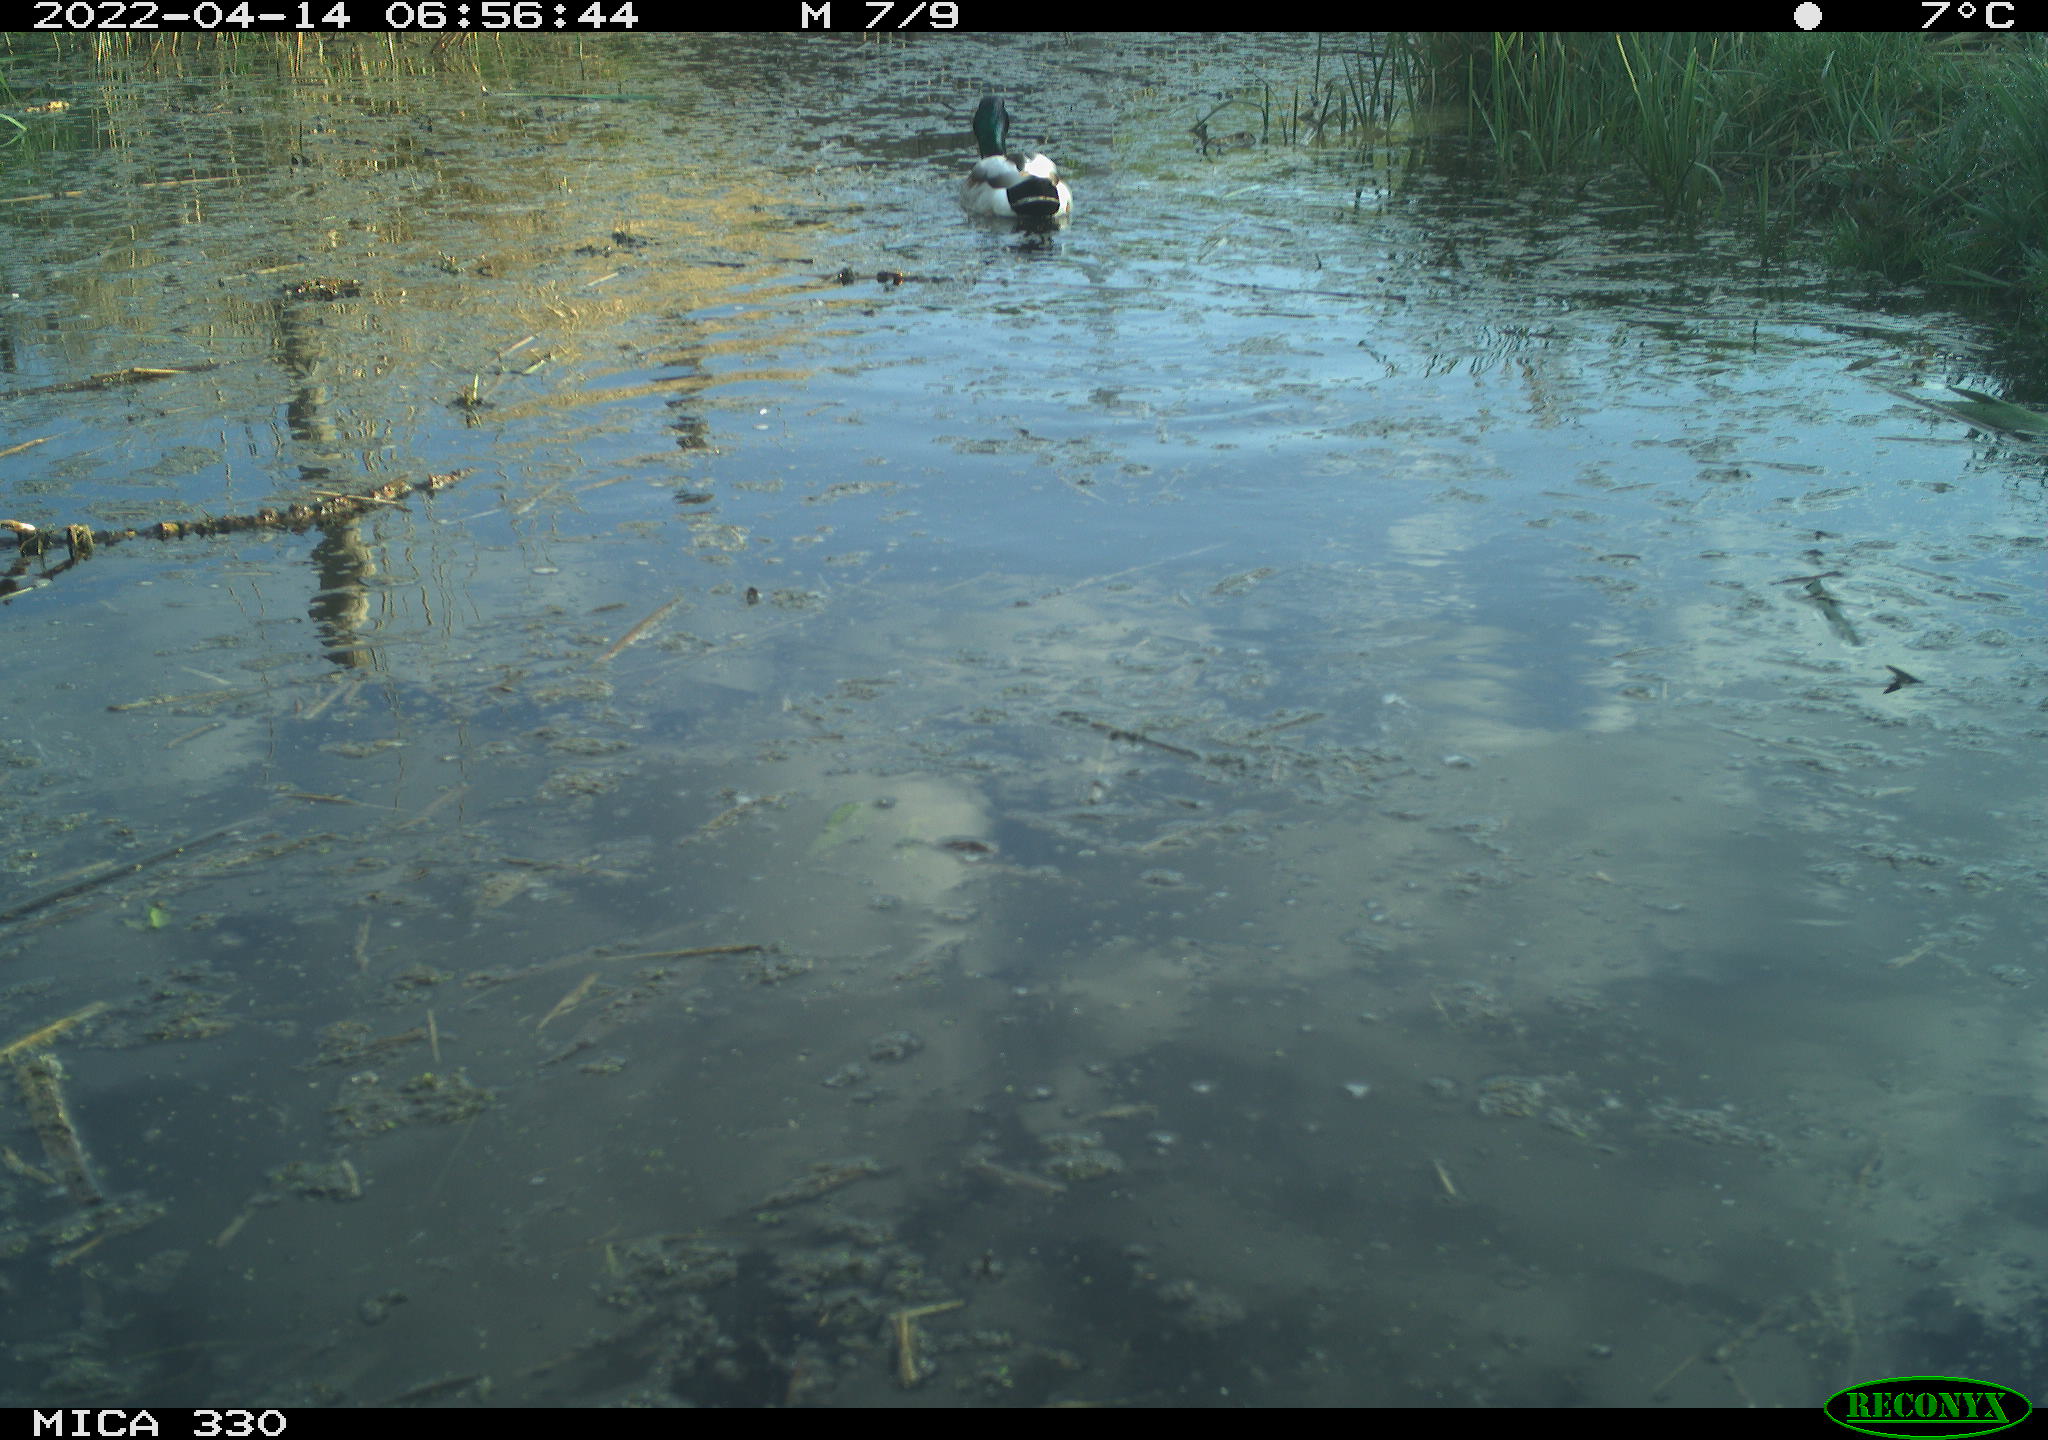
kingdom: Animalia
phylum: Chordata
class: Aves
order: Anseriformes
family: Anatidae
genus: Anas
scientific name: Anas platyrhynchos
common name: Mallard
